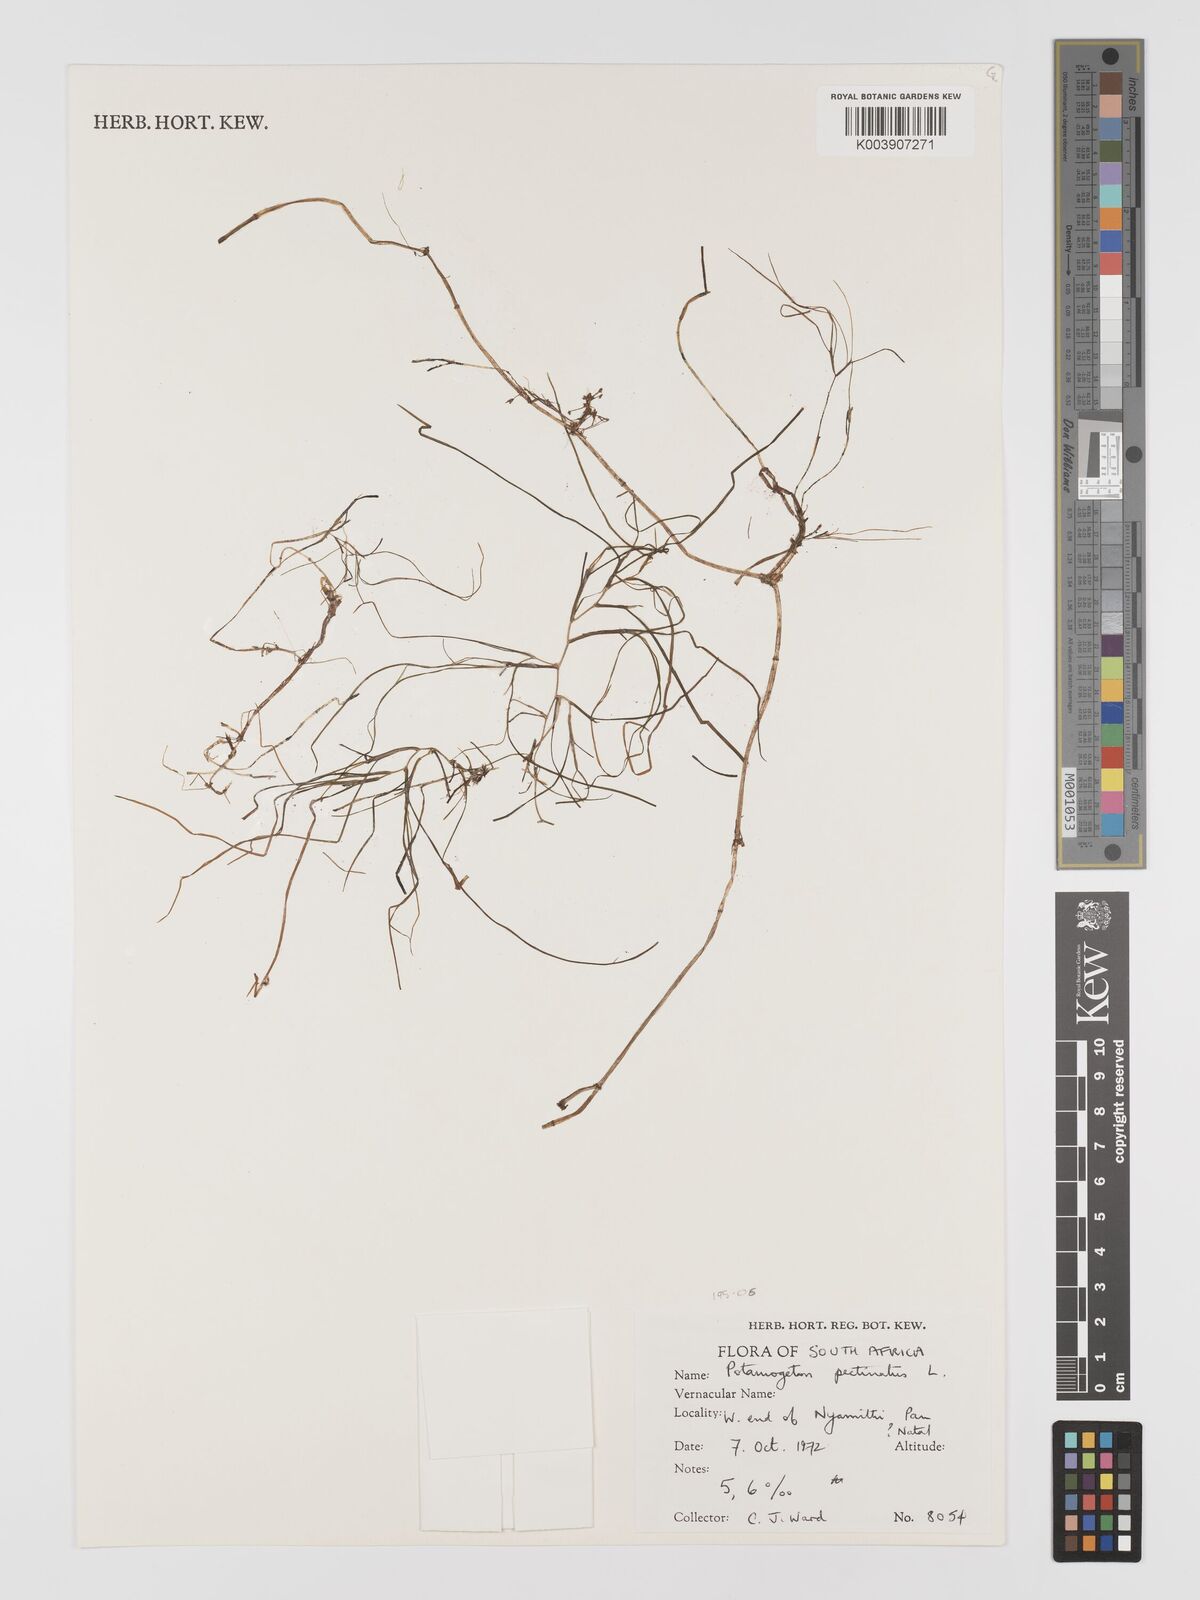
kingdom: Plantae
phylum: Tracheophyta
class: Liliopsida
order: Alismatales
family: Potamogetonaceae
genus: Stuckenia
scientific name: Stuckenia pectinata
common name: Sago pondweed
